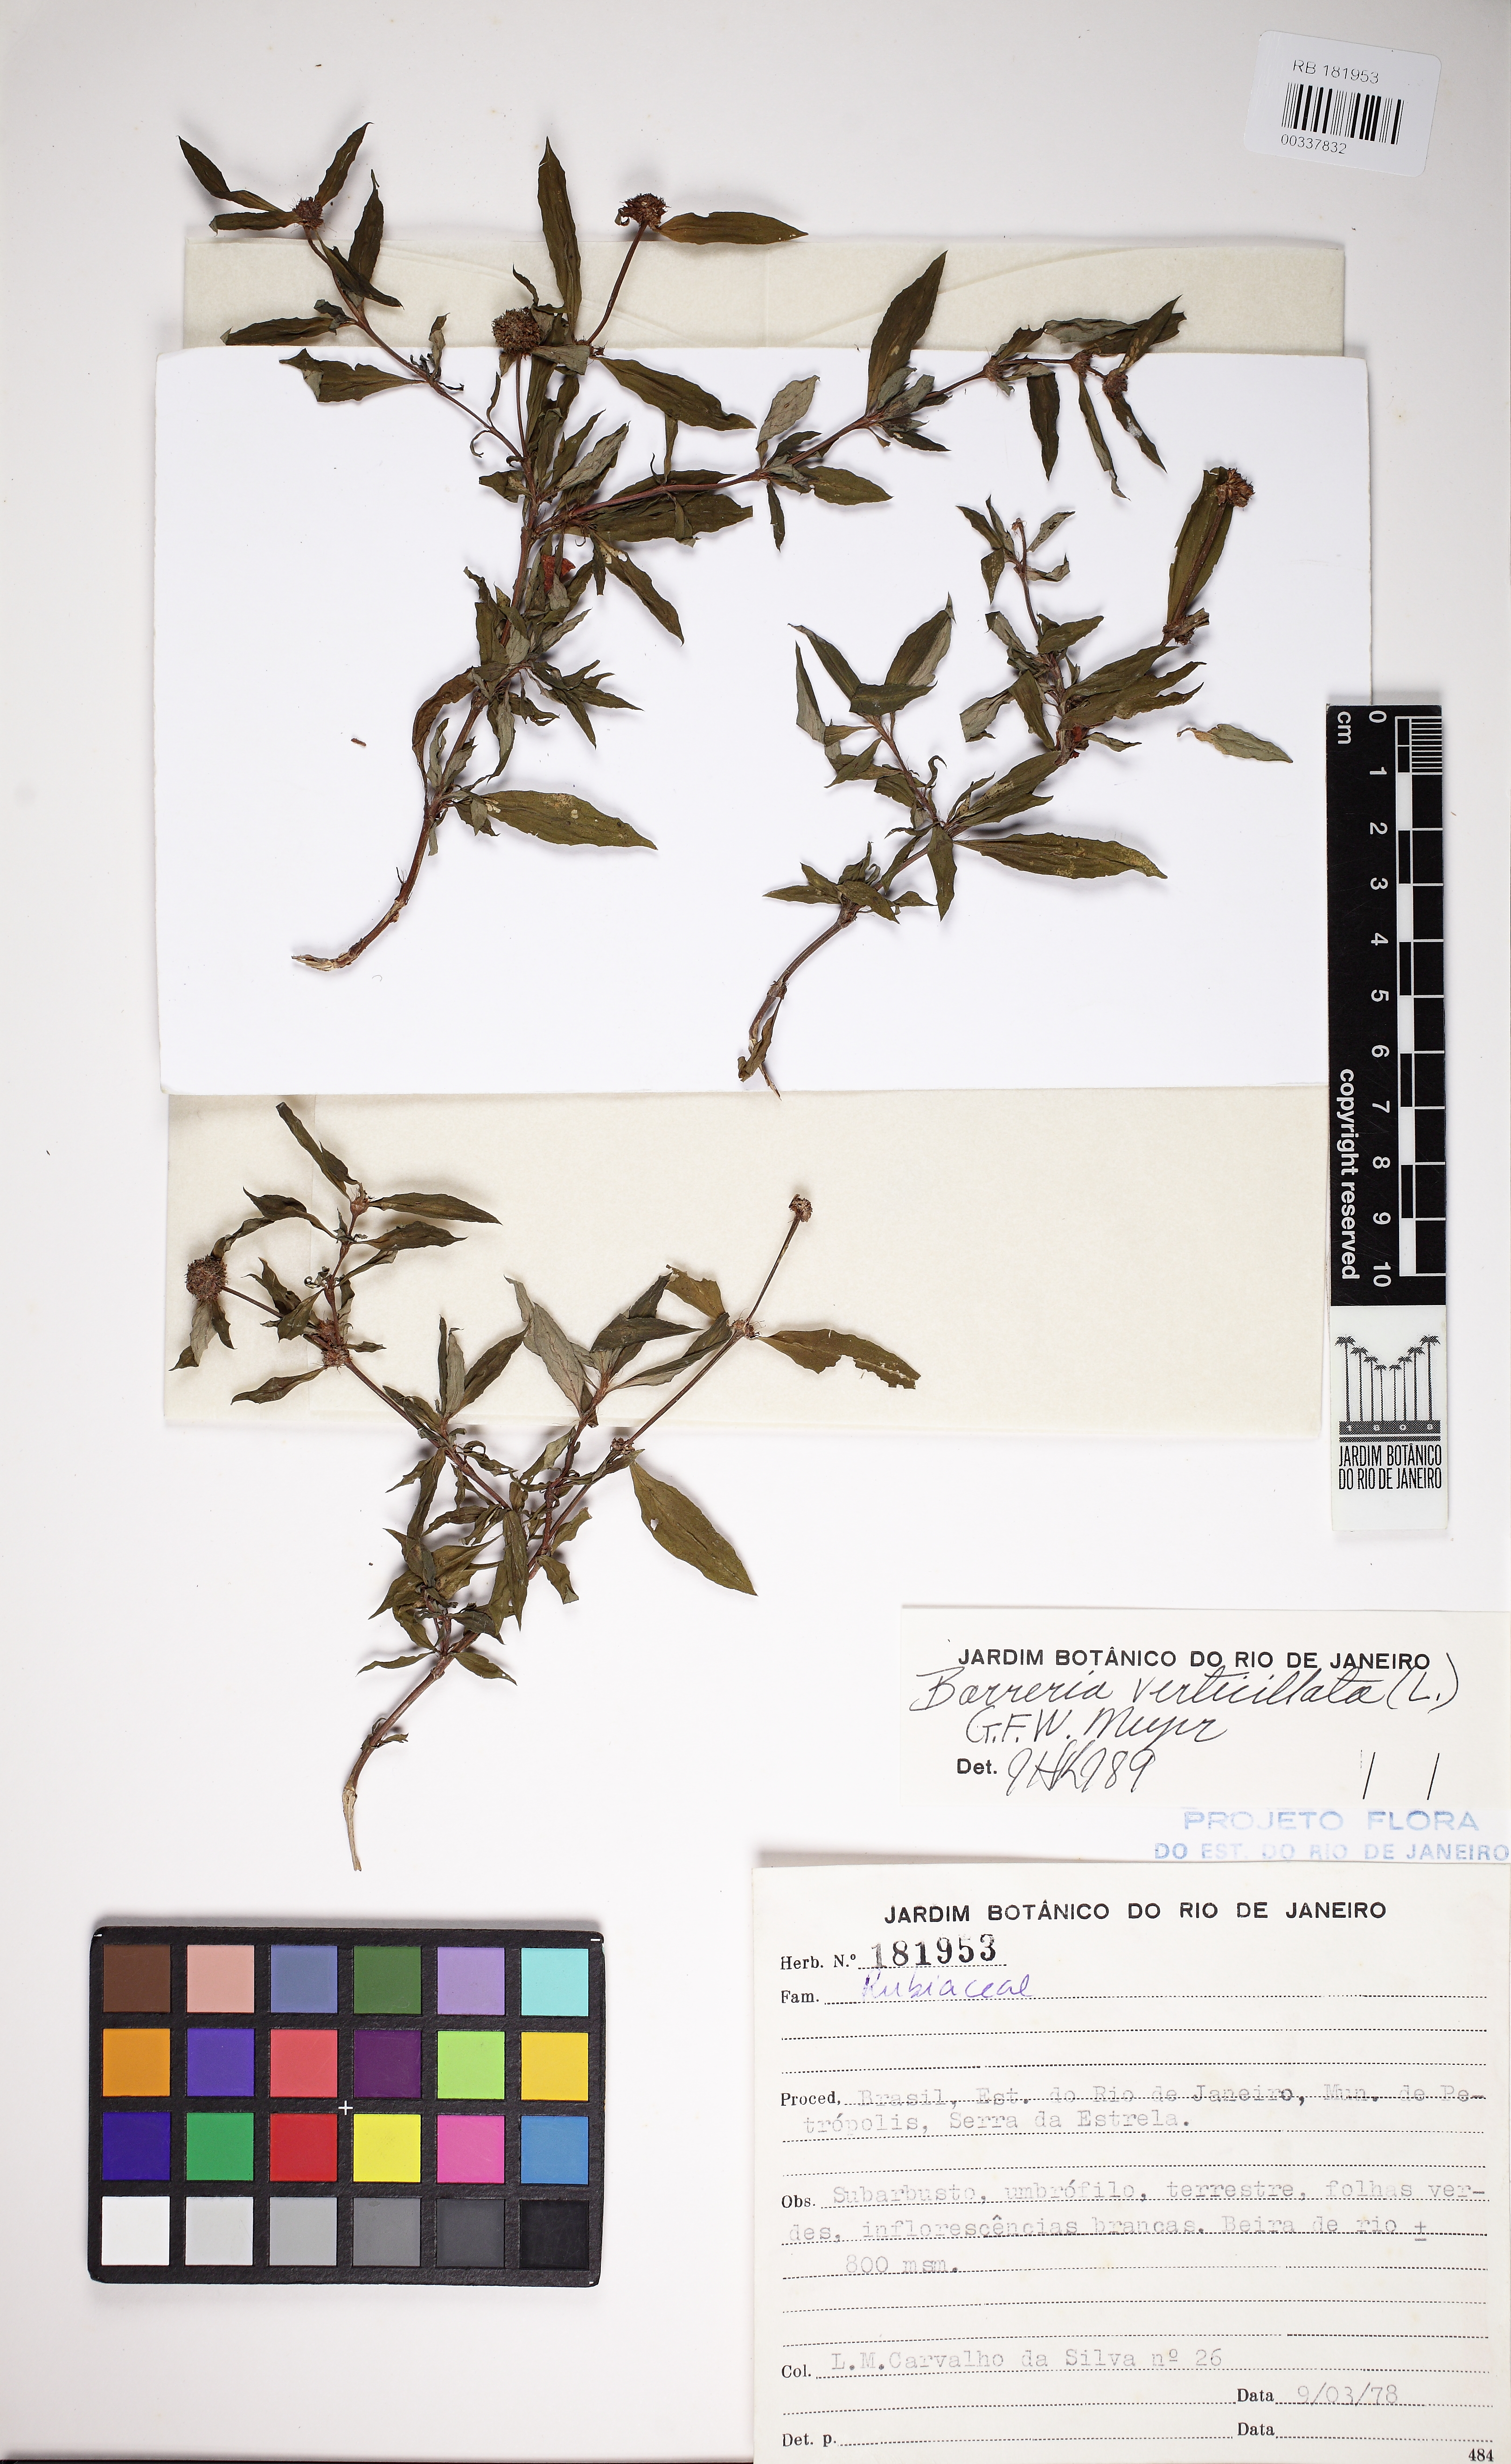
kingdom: Plantae
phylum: Tracheophyta
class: Magnoliopsida
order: Gentianales
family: Rubiaceae
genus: Spermacoce
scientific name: Spermacoce verticillata
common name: Shrubby false buttonweed
